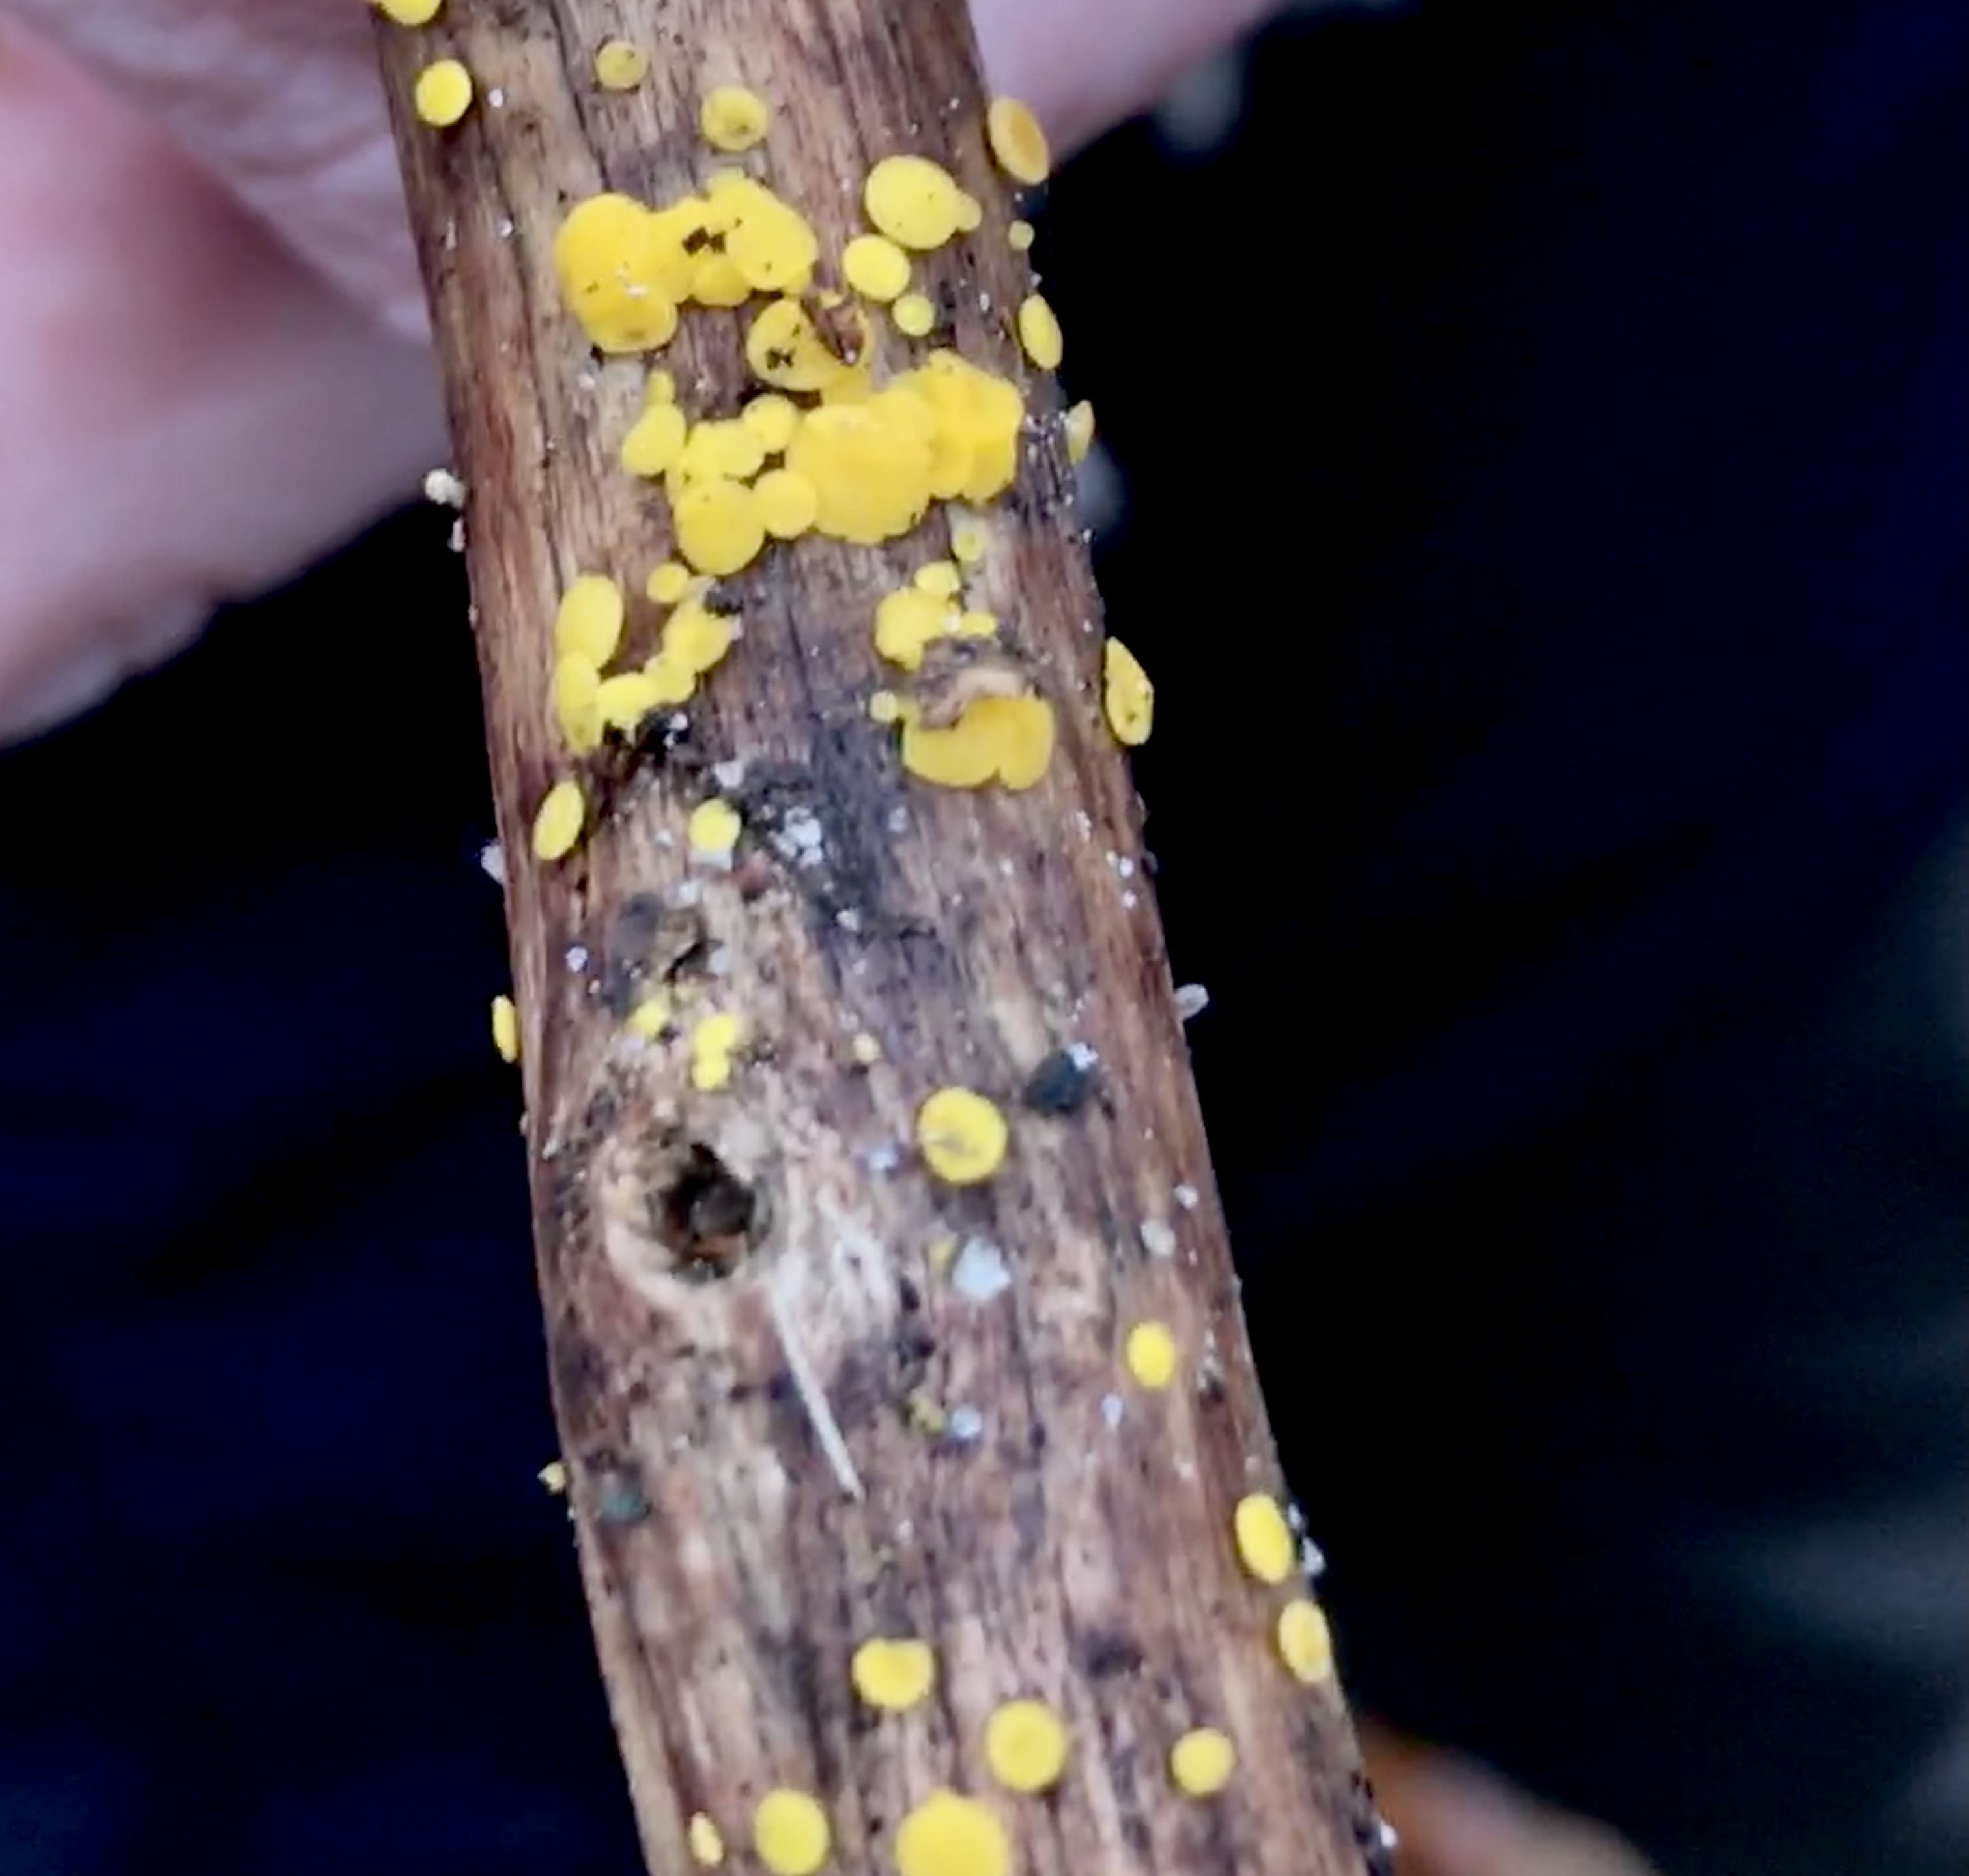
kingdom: Fungi
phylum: Ascomycota
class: Leotiomycetes
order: Helotiales
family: Pezizellaceae
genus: Calycina
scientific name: Calycina citrina
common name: almindelig gulskive
